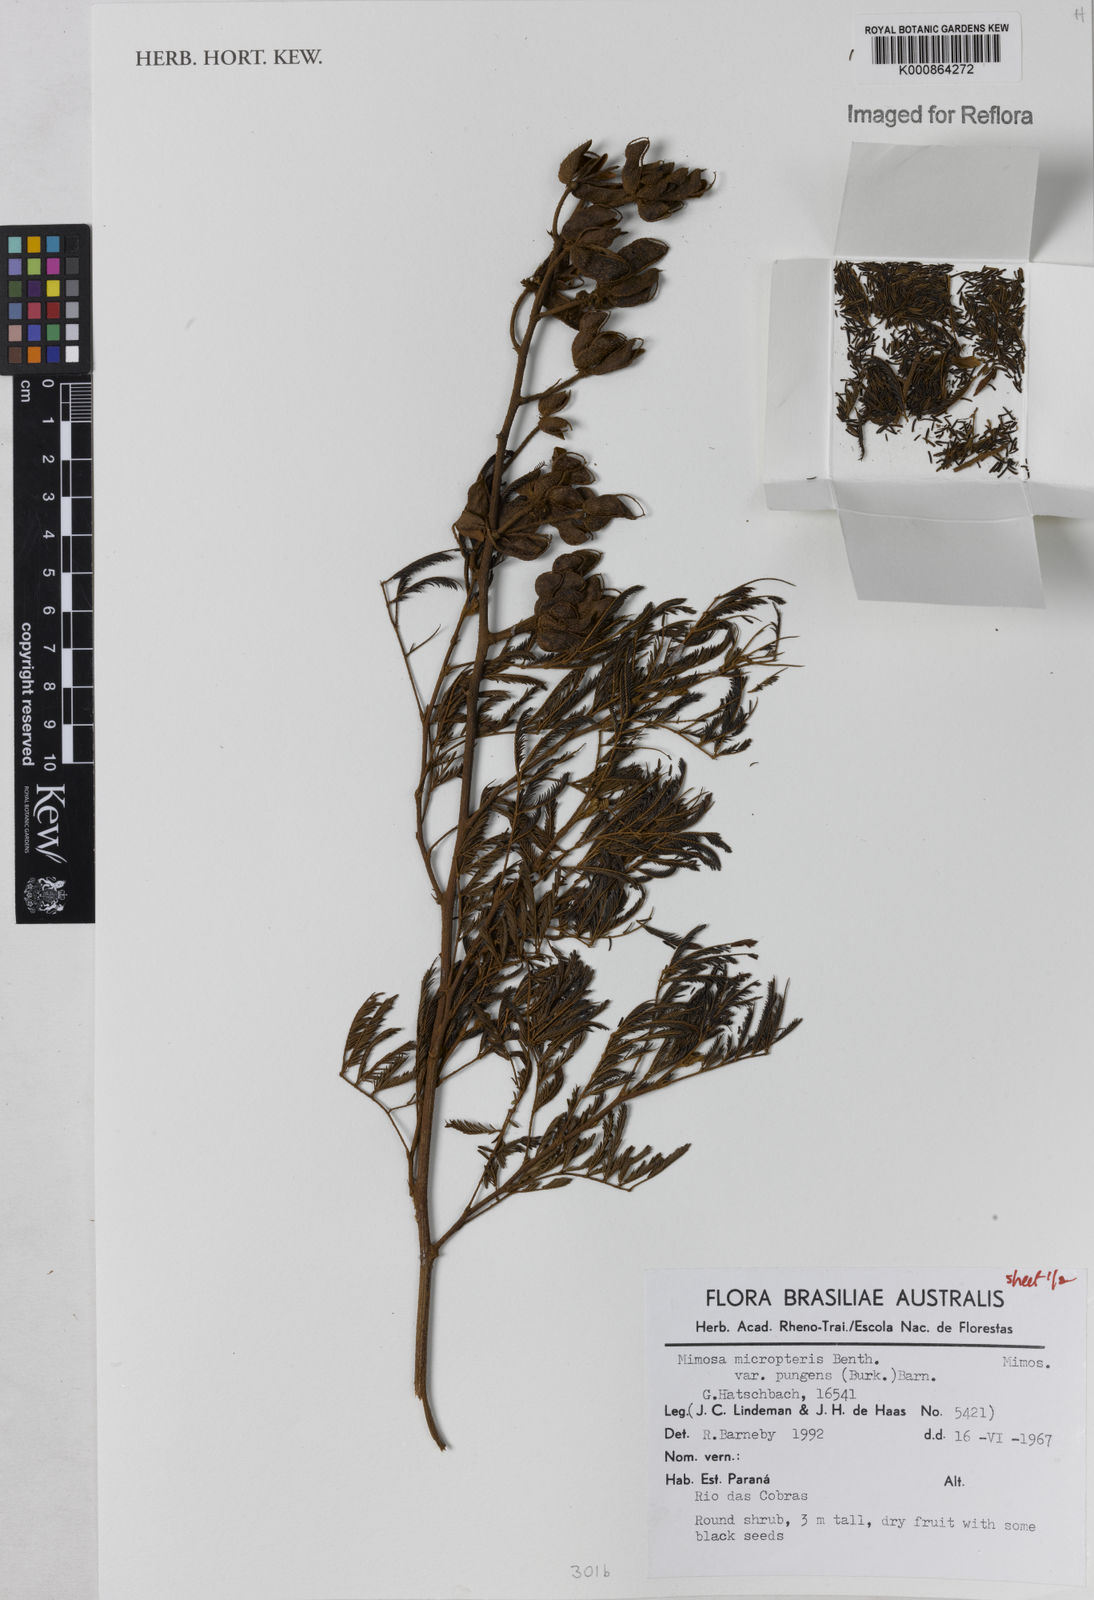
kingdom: Plantae
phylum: Tracheophyta
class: Magnoliopsida
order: Fabales
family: Fabaceae
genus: Mimosa
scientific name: Mimosa micropteris
